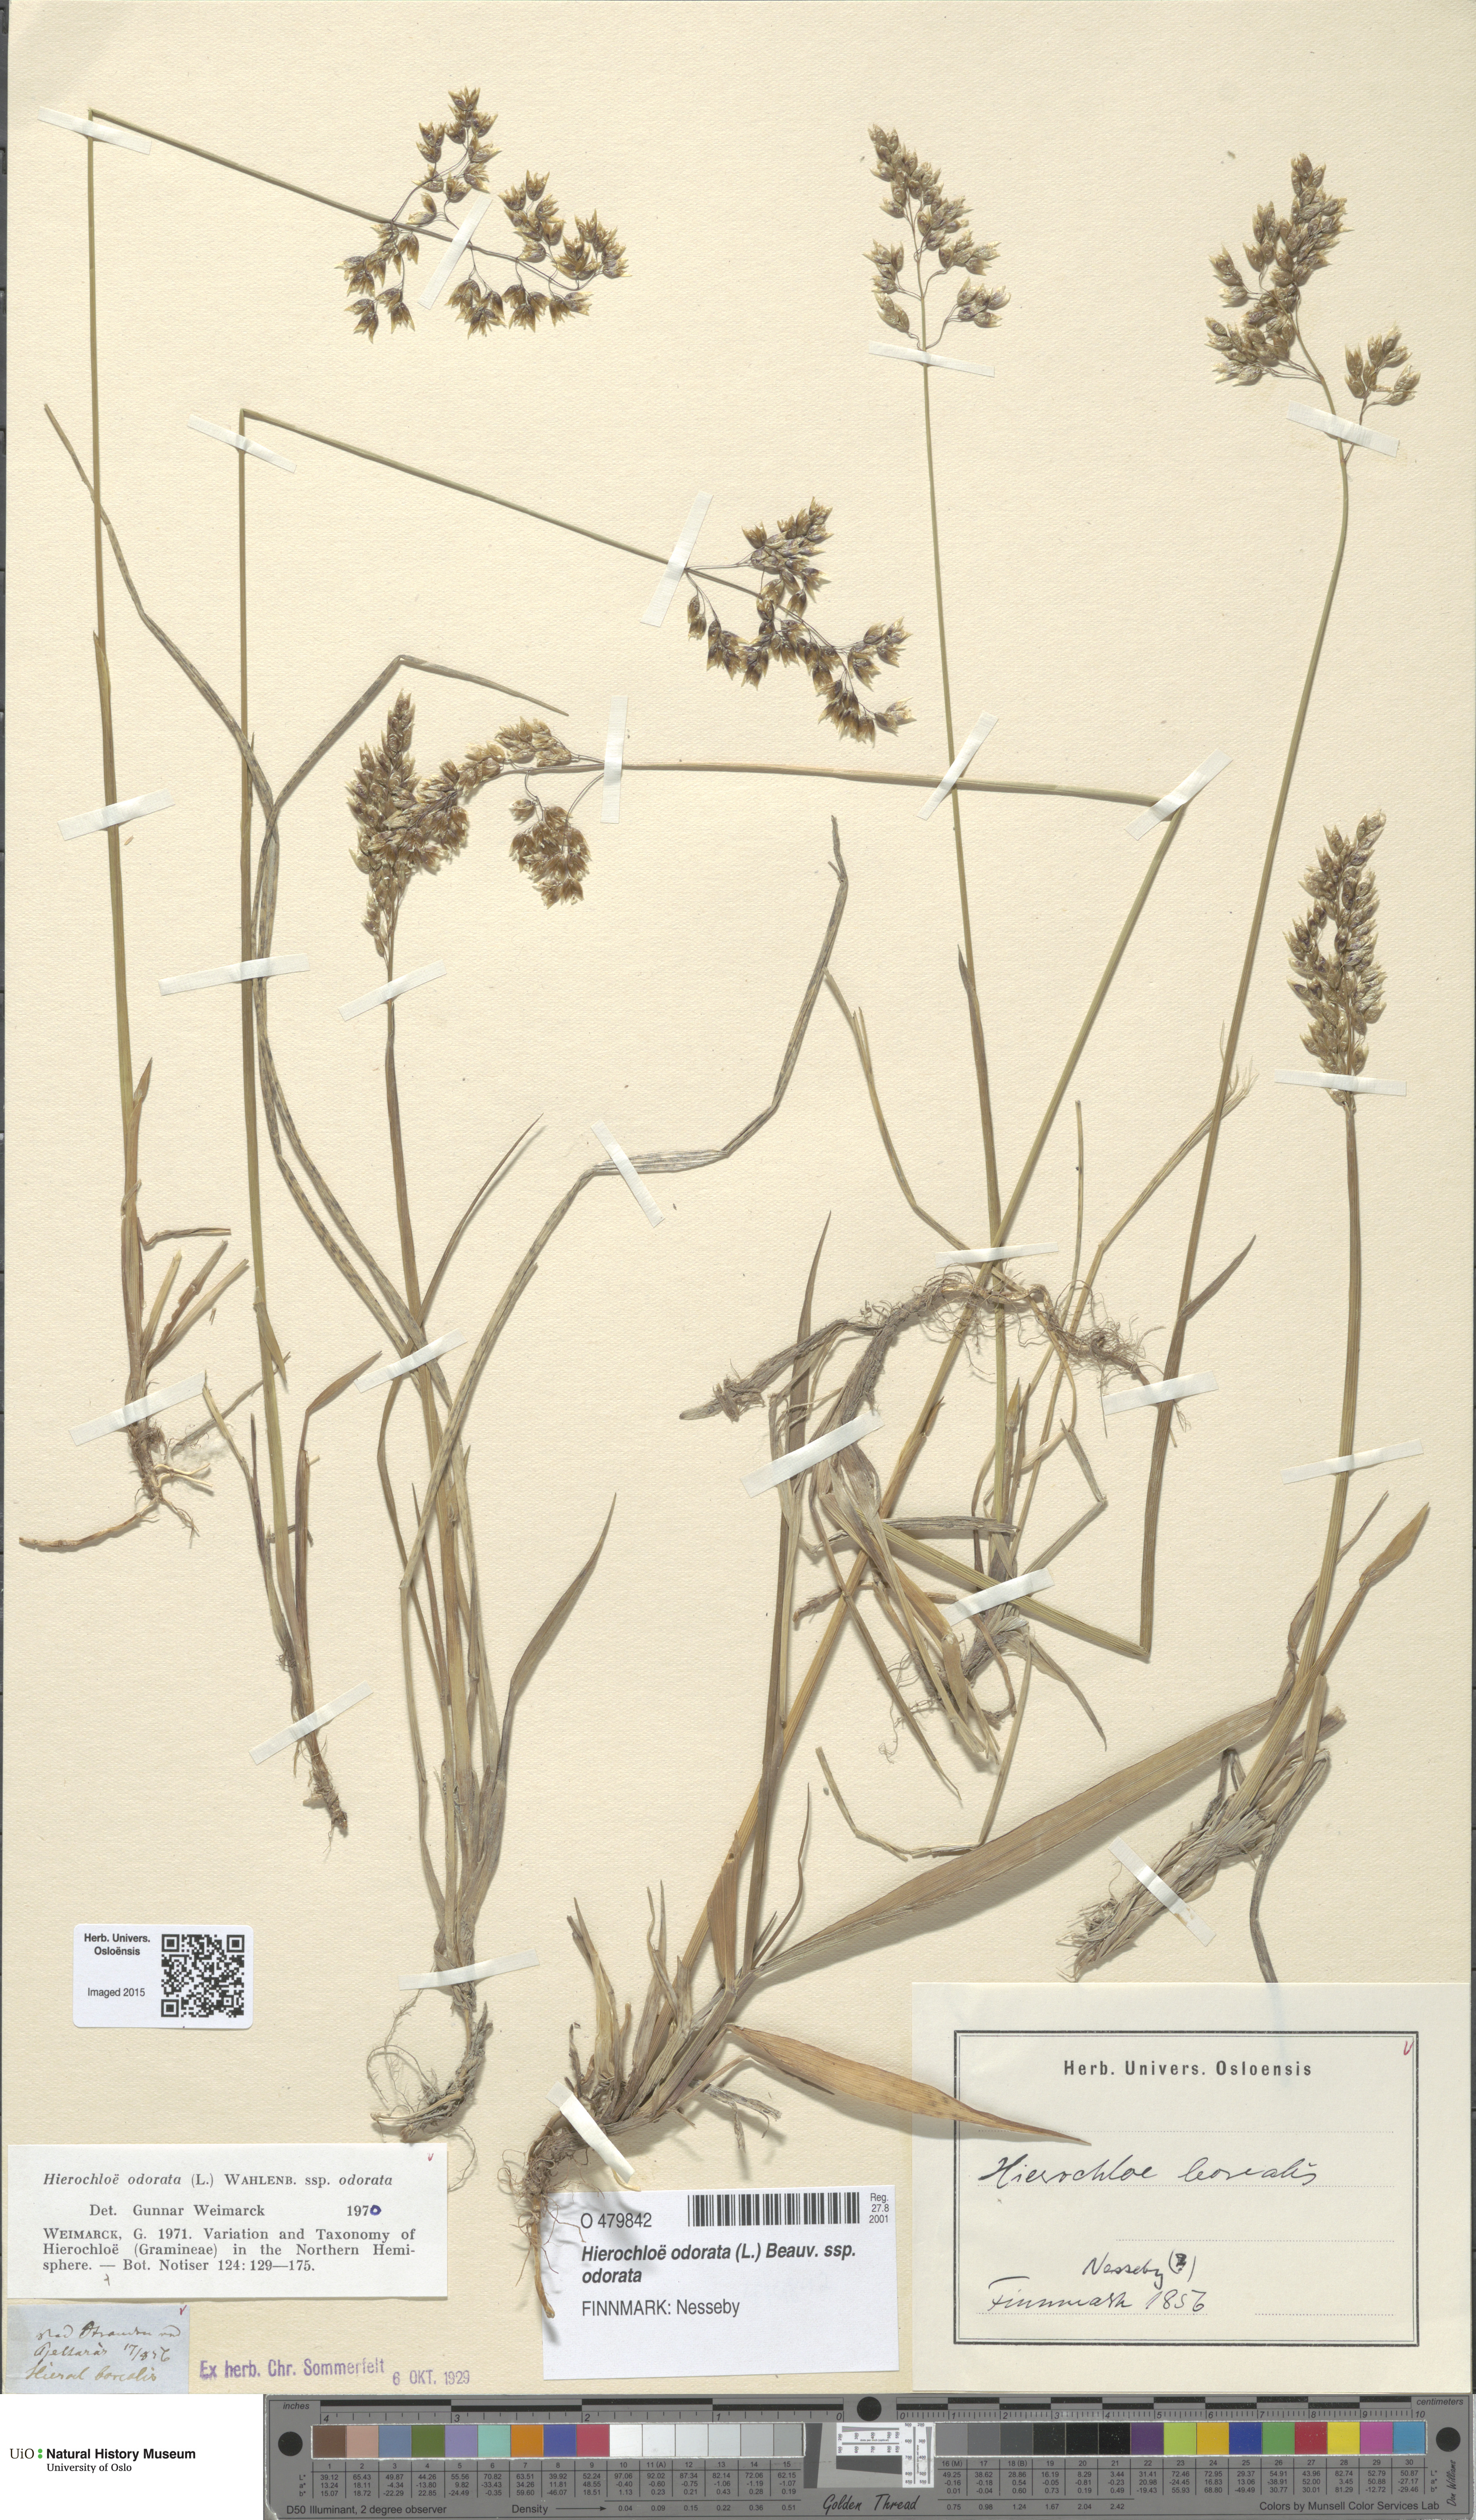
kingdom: Plantae
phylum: Tracheophyta
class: Liliopsida
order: Poales
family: Poaceae
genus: Anthoxanthum
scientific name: Anthoxanthum nitens
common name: Holy grass
